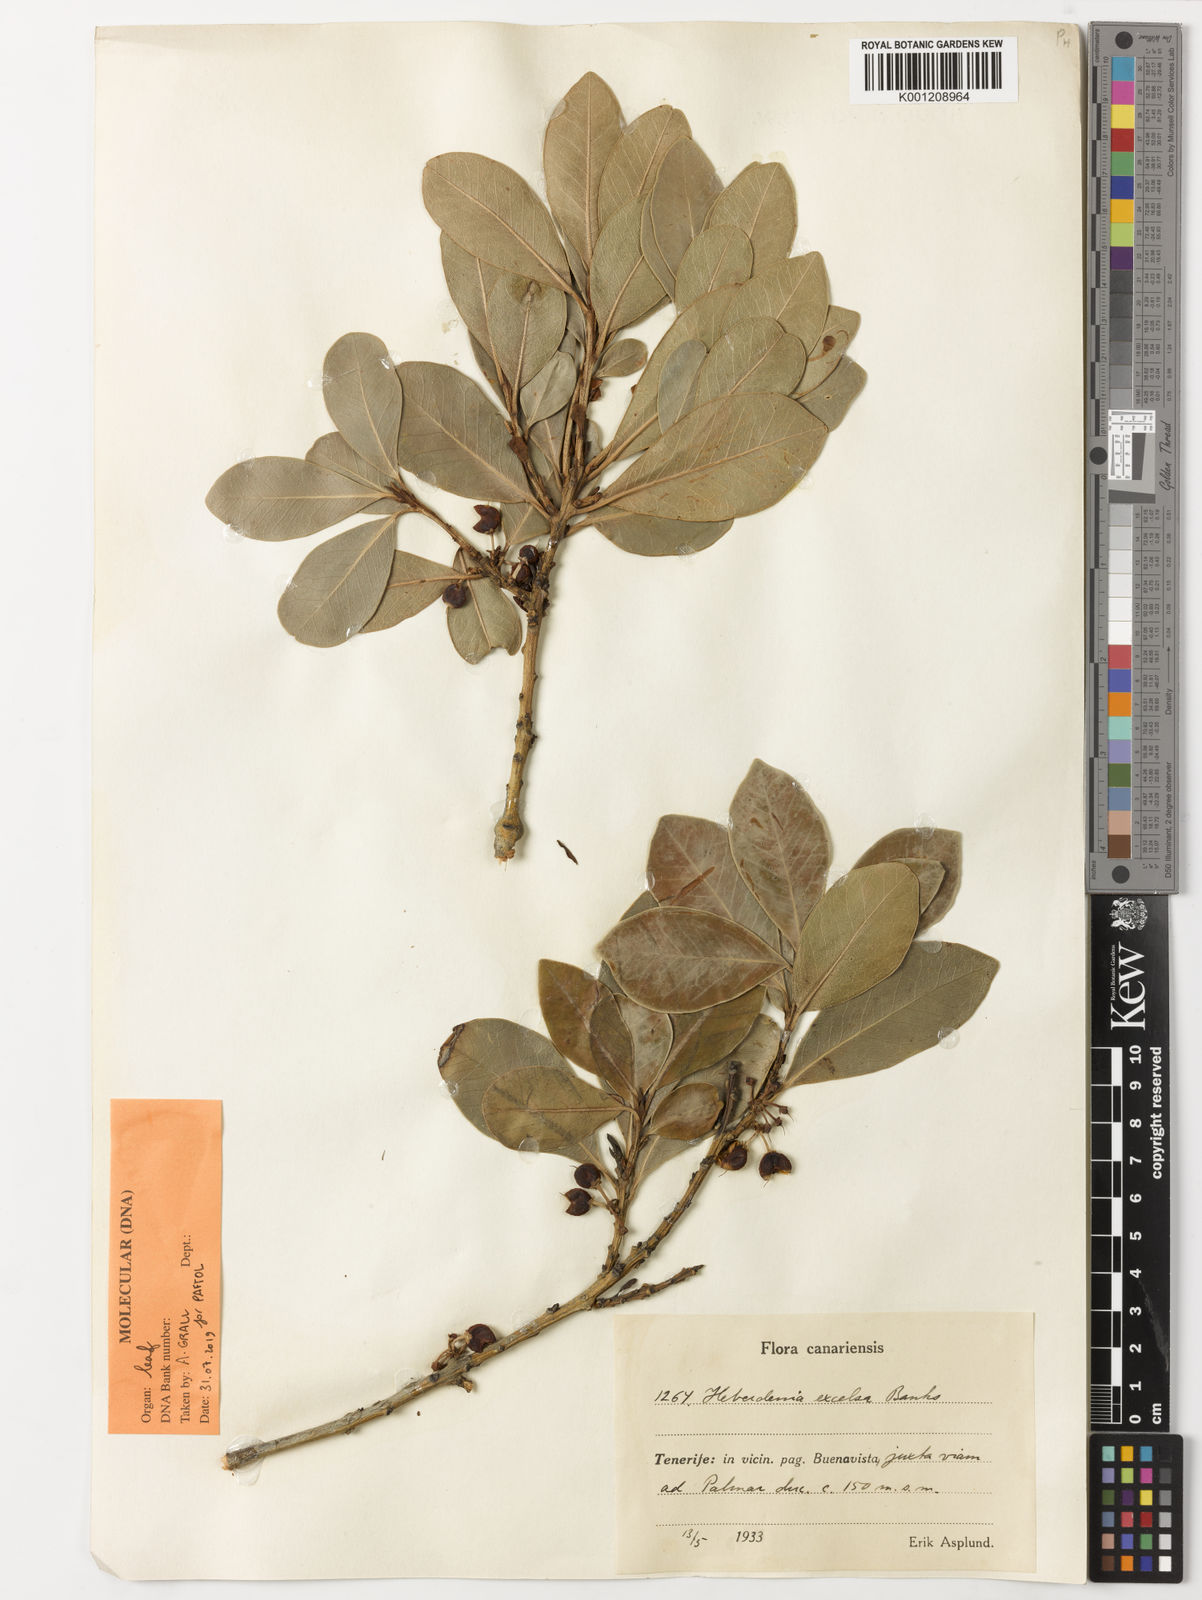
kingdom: Plantae
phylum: Tracheophyta
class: Magnoliopsida
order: Ericales
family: Primulaceae
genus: Heberdenia
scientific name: Heberdenia excelsa
